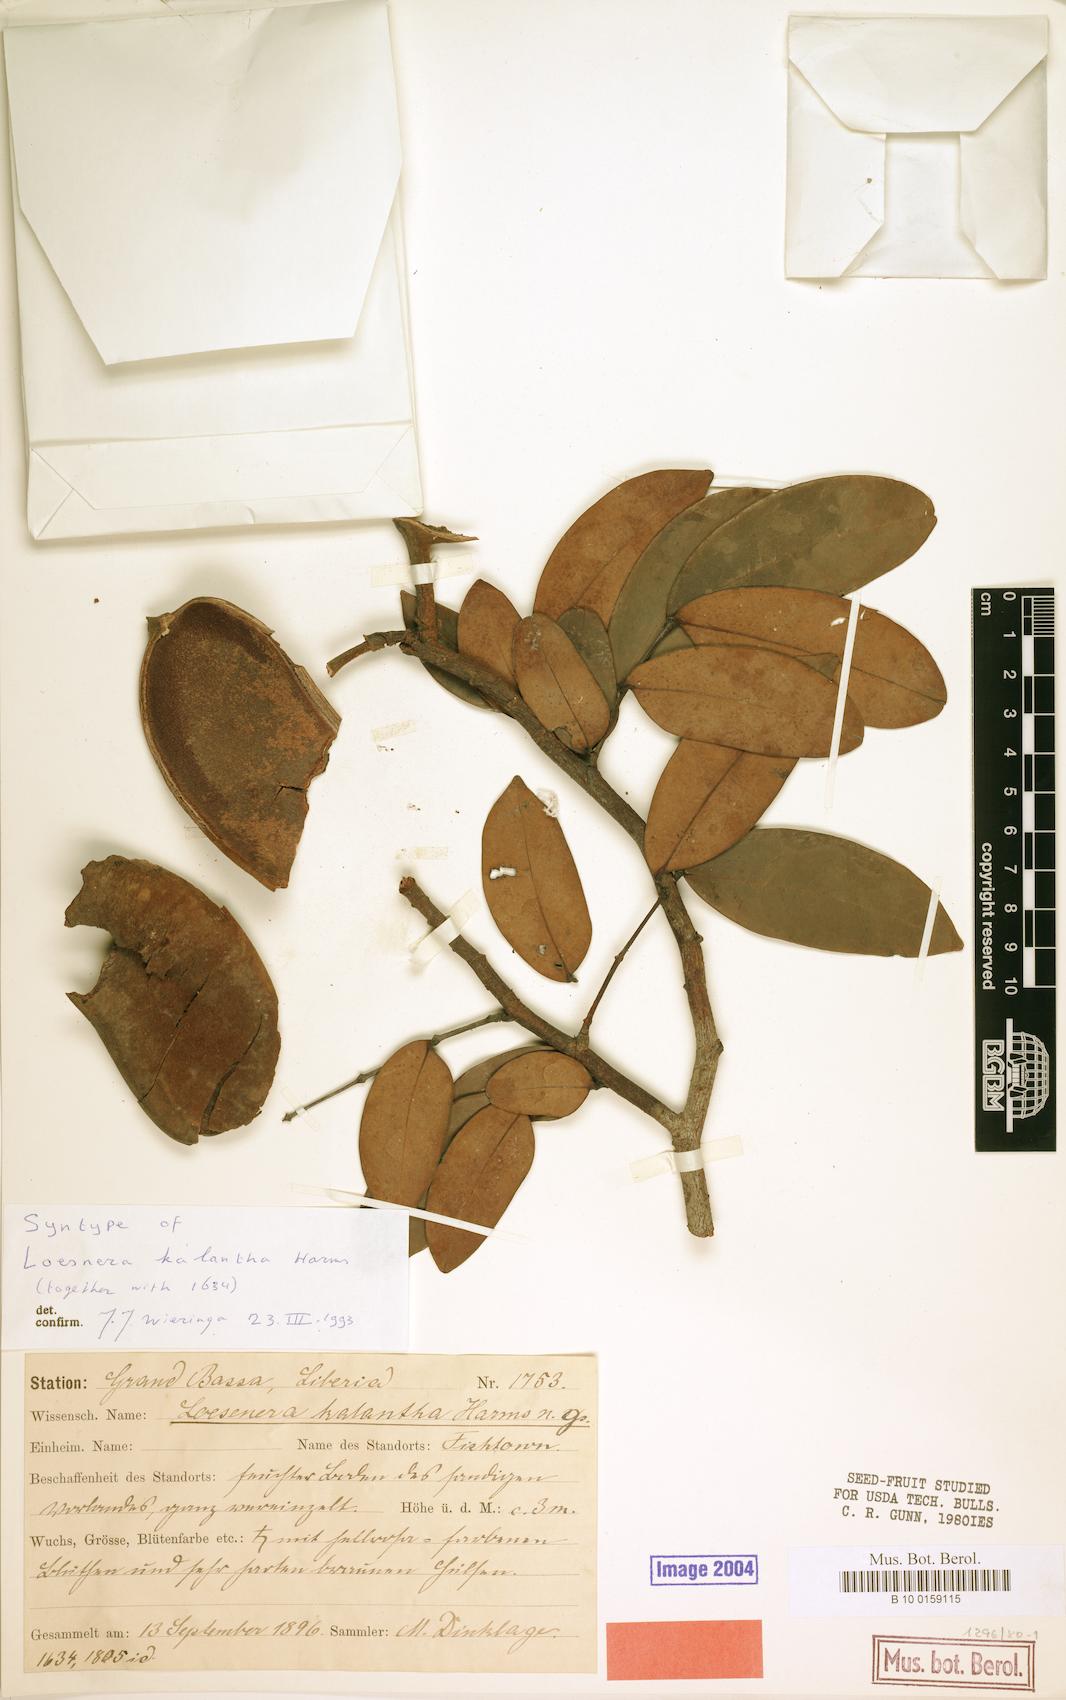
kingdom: Plantae
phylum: Tracheophyta
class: Magnoliopsida
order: Fabales
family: Fabaceae
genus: Loesenera
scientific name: Loesenera kalantha
